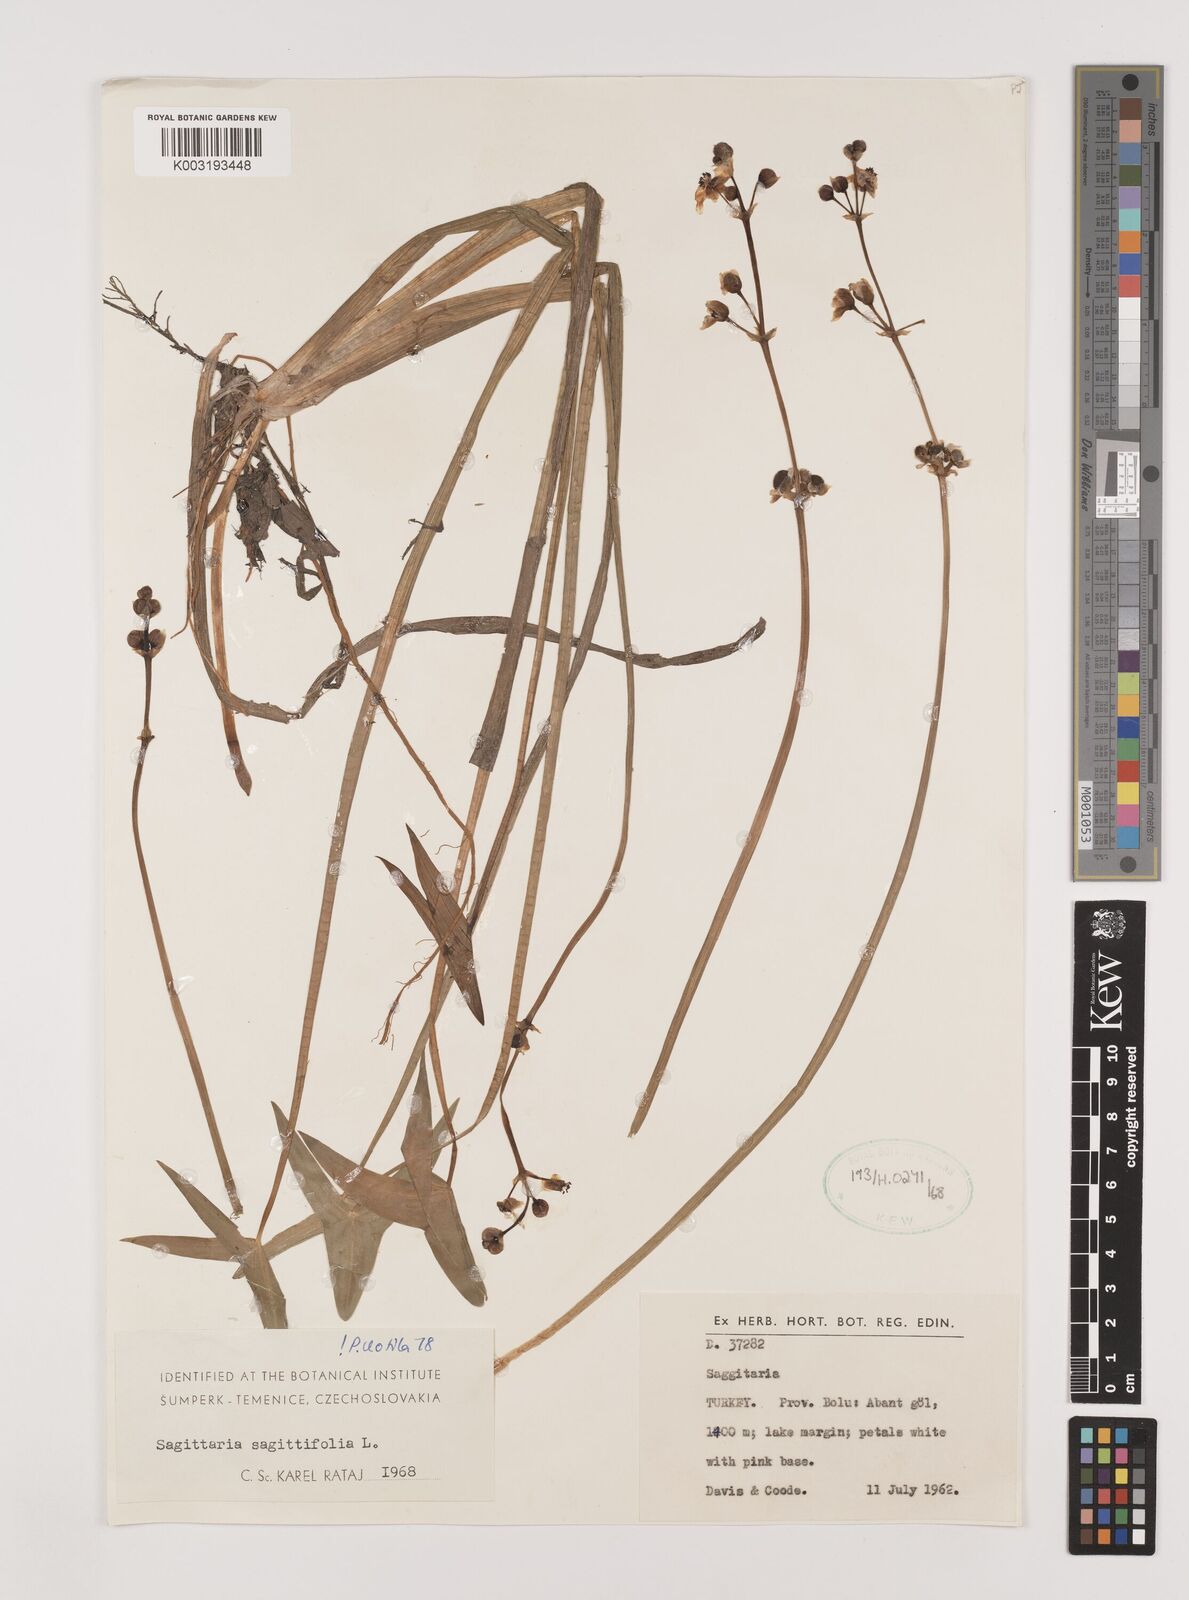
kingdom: Plantae
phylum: Tracheophyta
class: Liliopsida
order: Alismatales
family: Alismataceae
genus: Sagittaria
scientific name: Sagittaria sagittifolia
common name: Arrowhead
